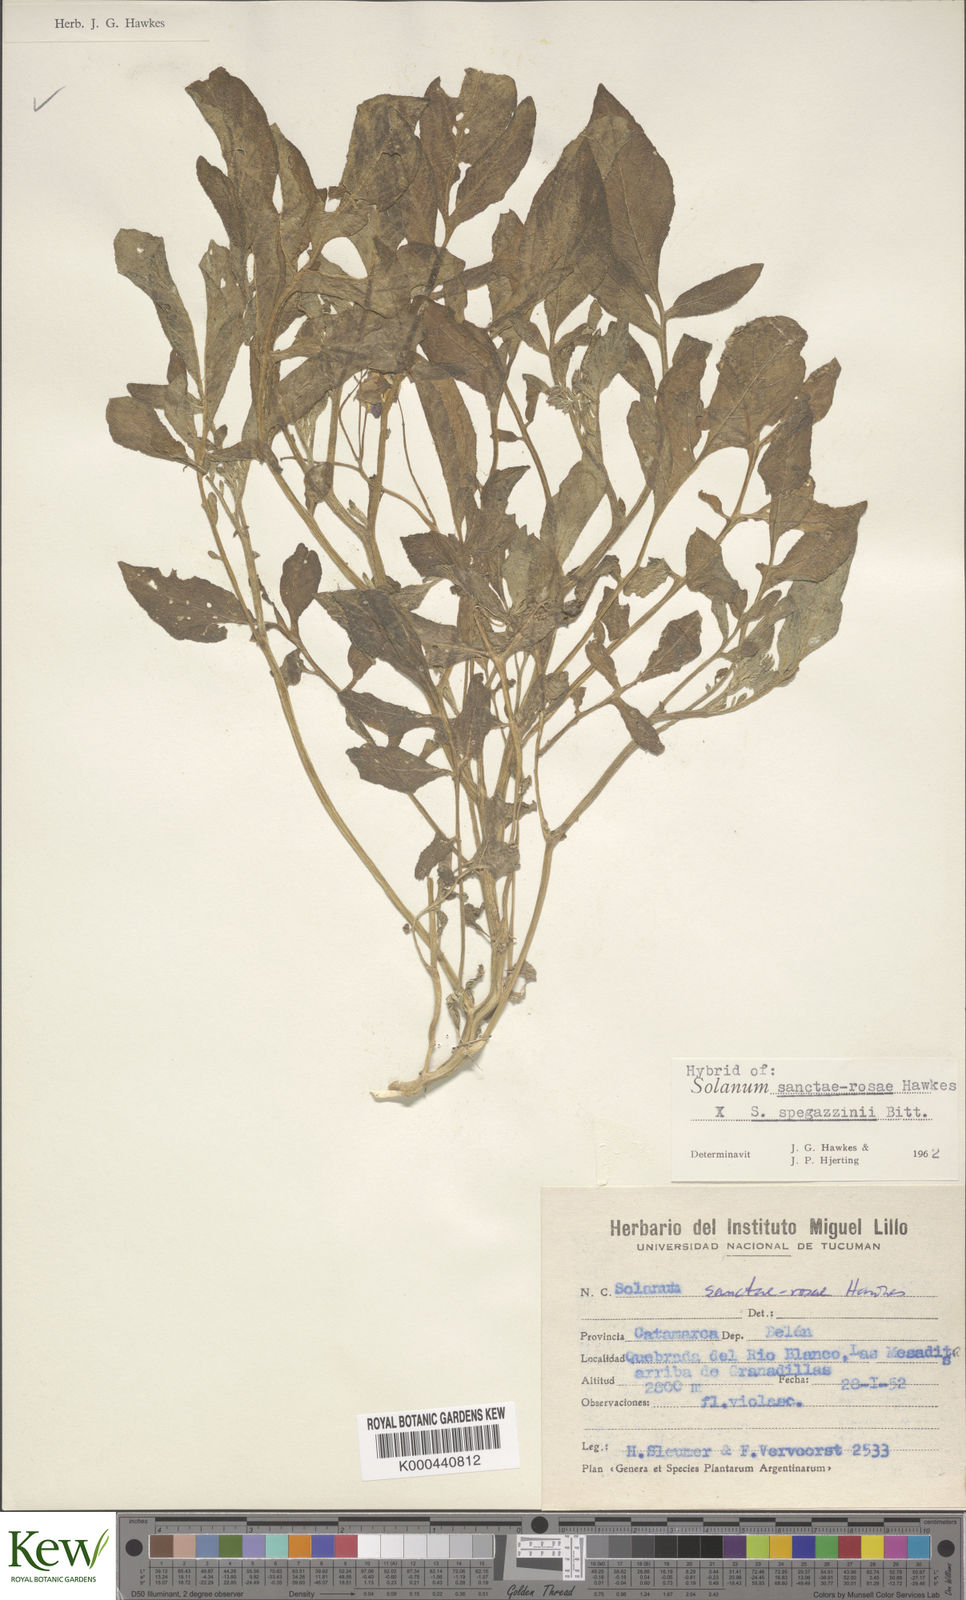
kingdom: Plantae
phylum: Tracheophyta
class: Magnoliopsida
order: Solanales
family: Solanaceae
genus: Solanum
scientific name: Solanum boliviense
